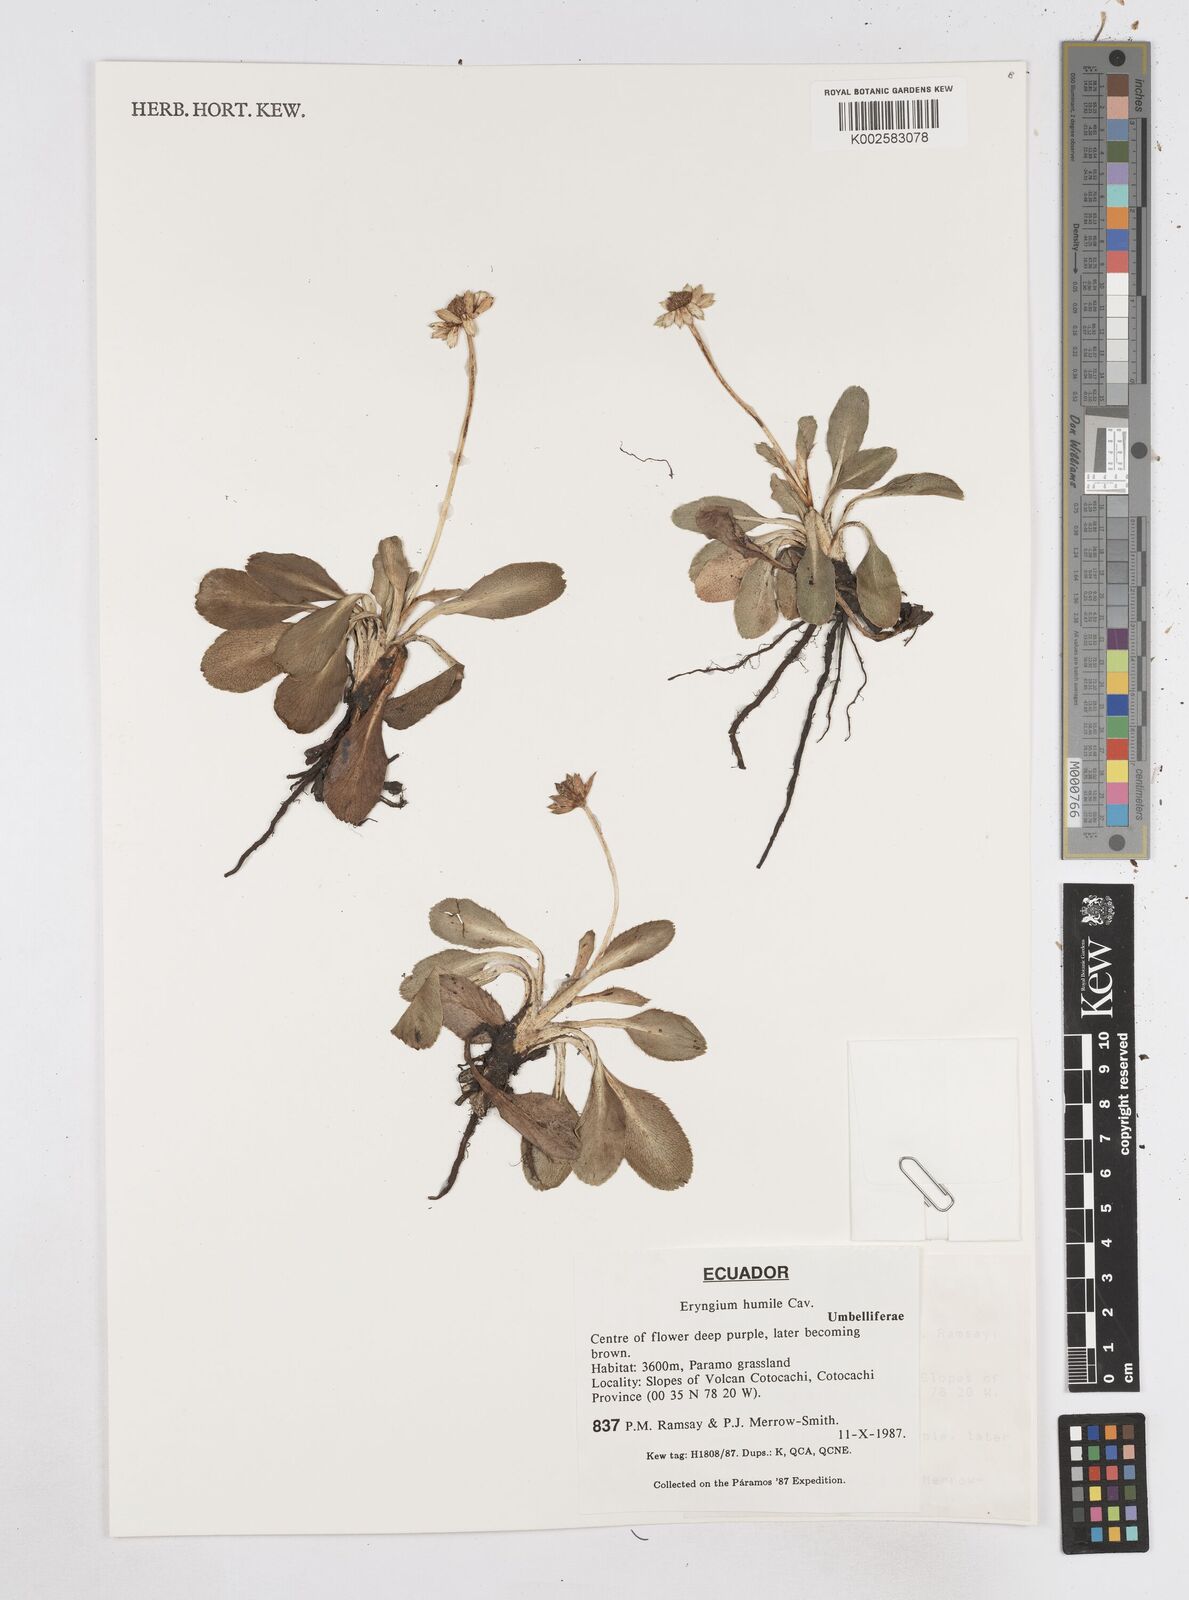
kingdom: Plantae
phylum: Tracheophyta
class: Magnoliopsida
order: Apiales
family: Apiaceae
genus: Eryngium
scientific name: Eryngium humile
